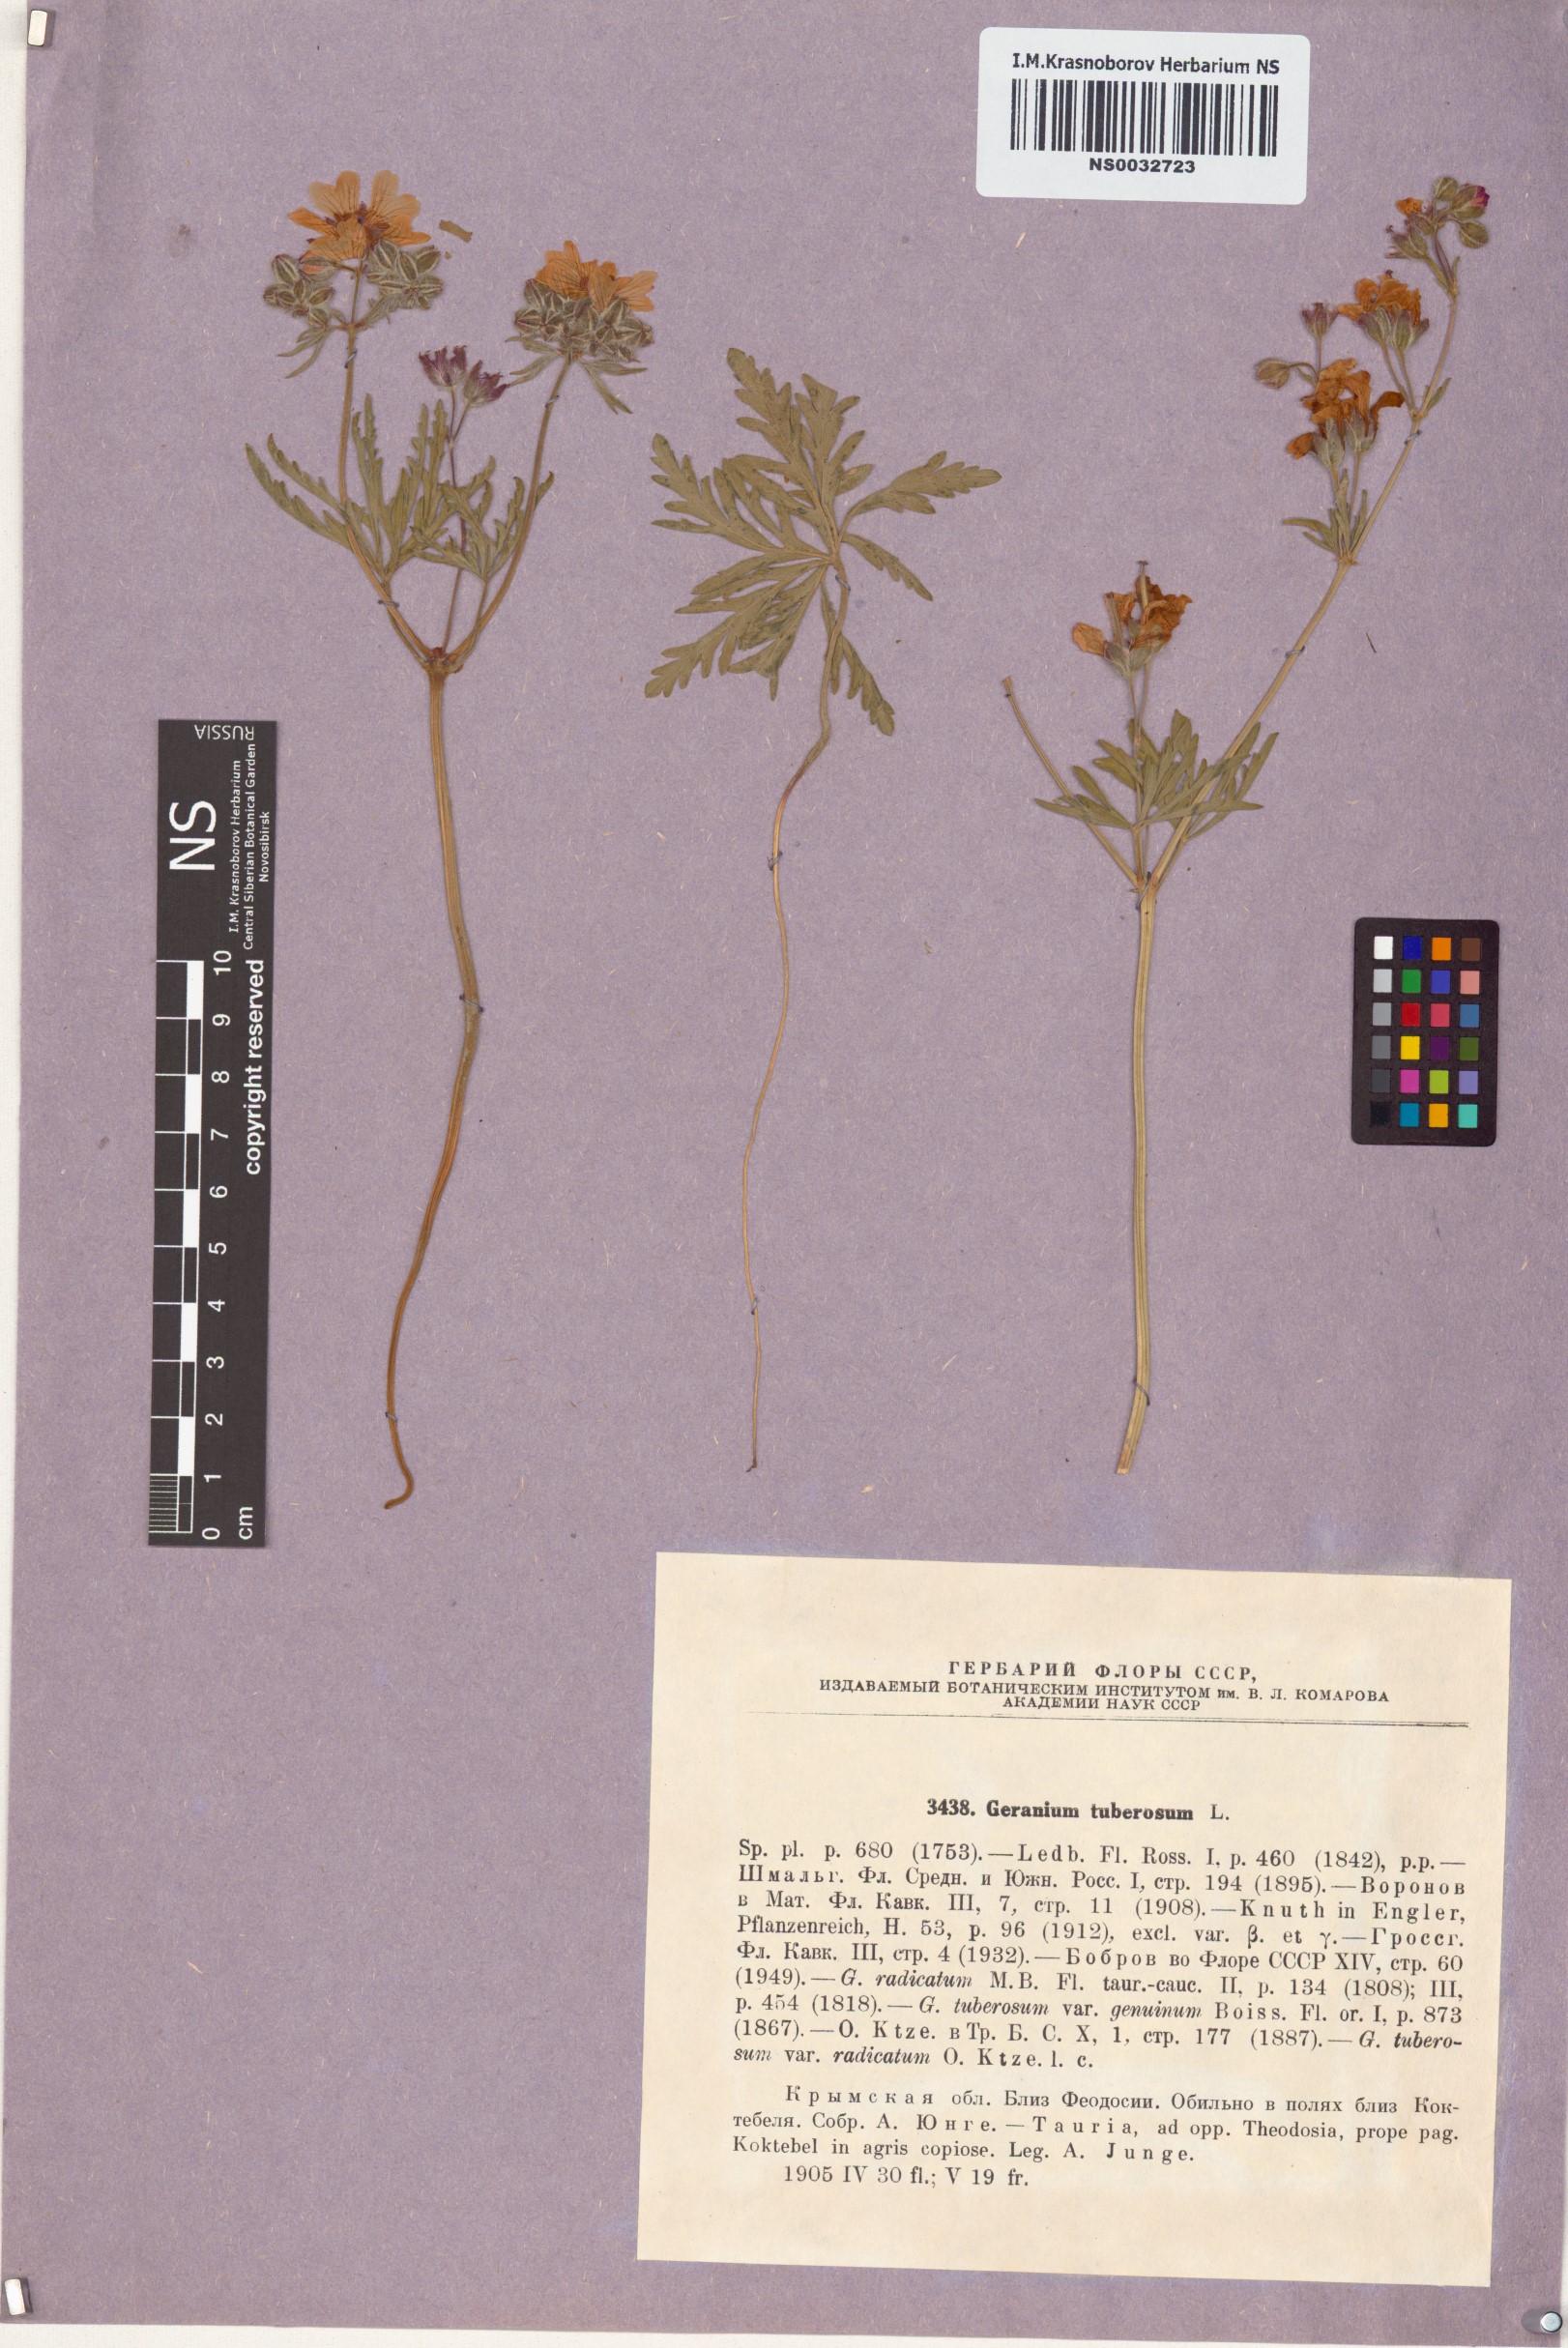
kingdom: Plantae
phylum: Tracheophyta
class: Magnoliopsida
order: Geraniales
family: Geraniaceae
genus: Geranium
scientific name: Geranium tuberosum
